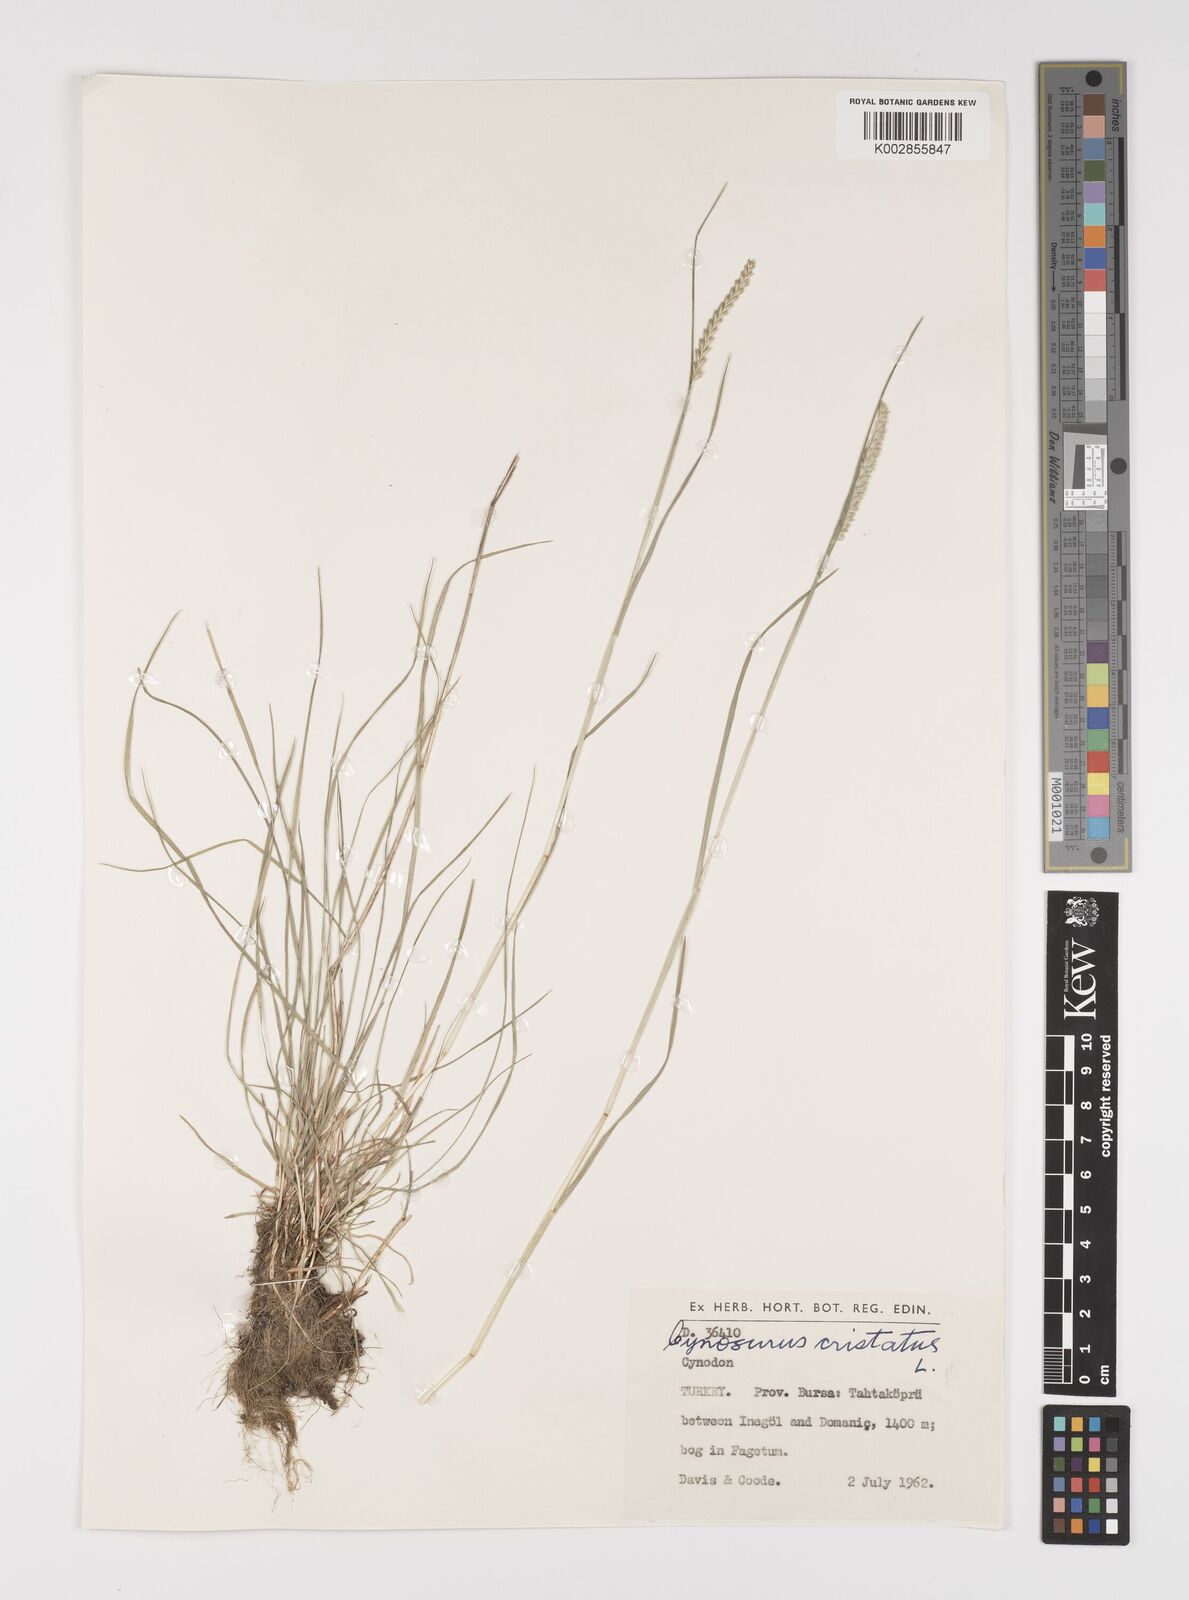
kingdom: Plantae
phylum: Tracheophyta
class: Liliopsida
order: Poales
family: Poaceae
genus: Cynosurus
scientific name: Cynosurus cristatus
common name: Crested dog's-tail
